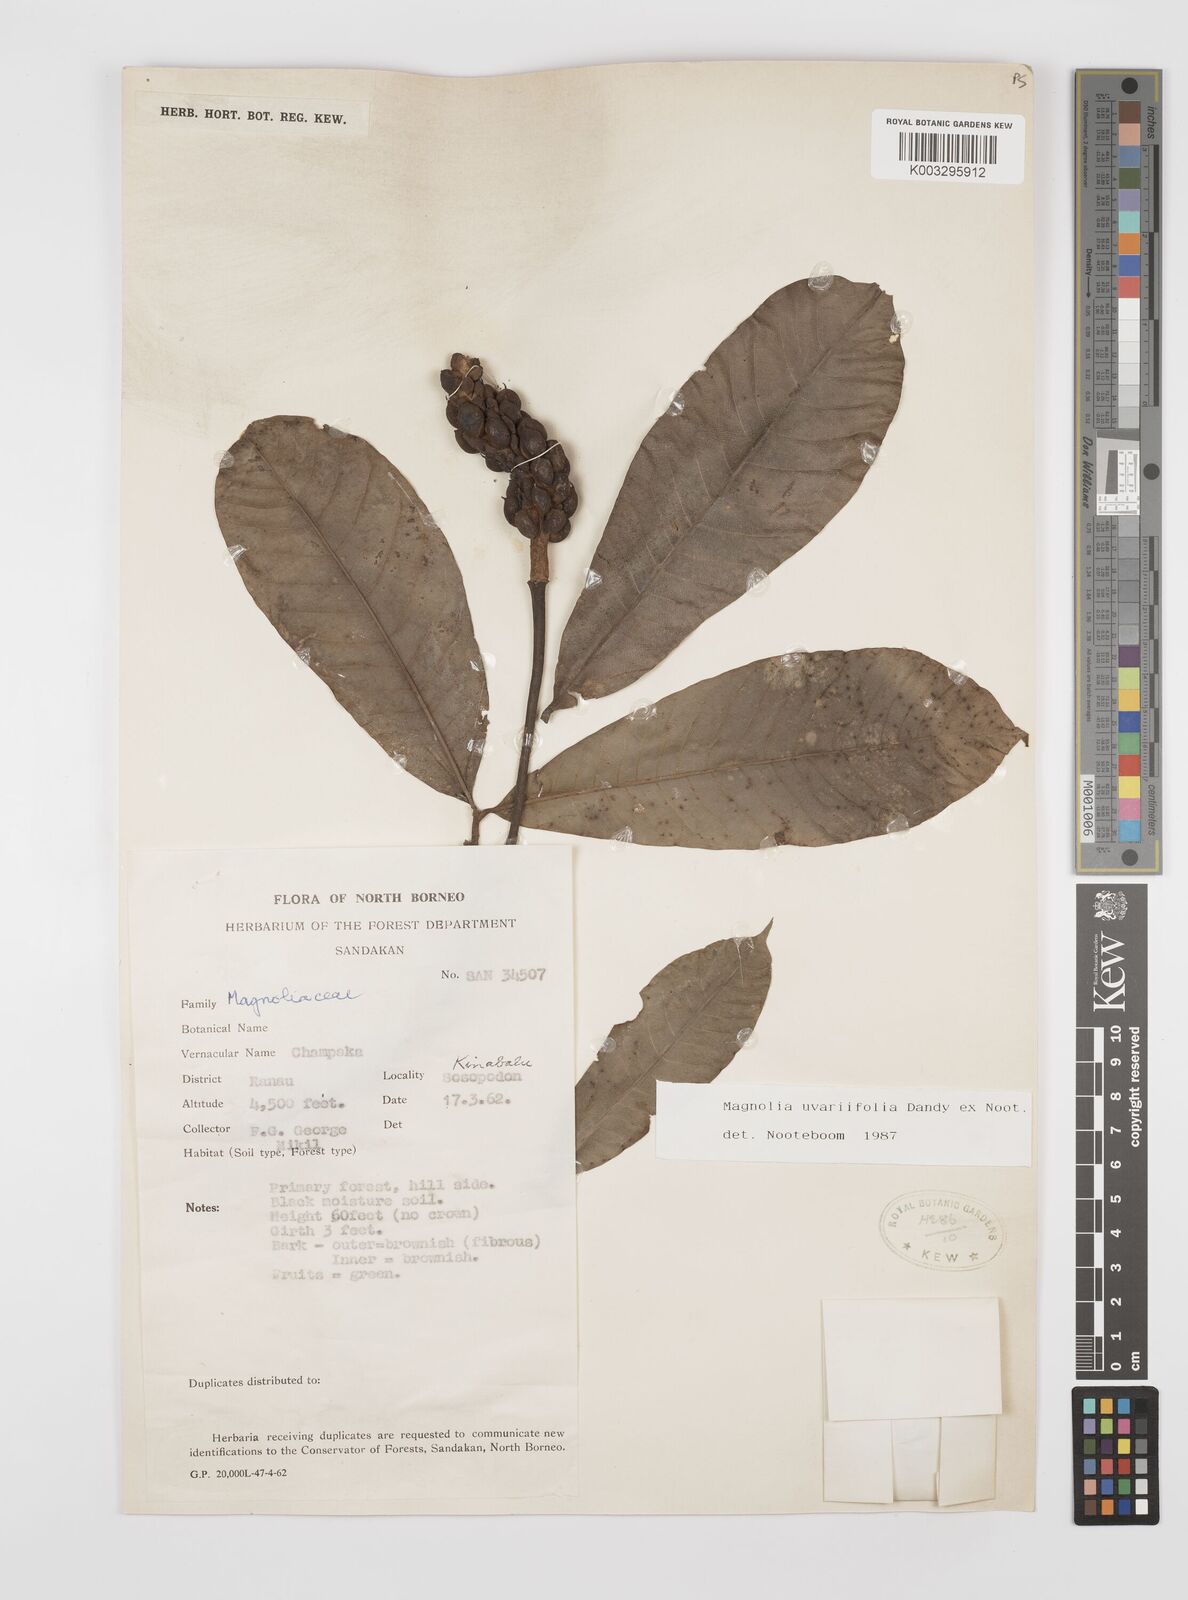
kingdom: Plantae
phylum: Tracheophyta
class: Magnoliopsida
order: Magnoliales
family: Magnoliaceae
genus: Magnolia
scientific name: Magnolia macklottii
